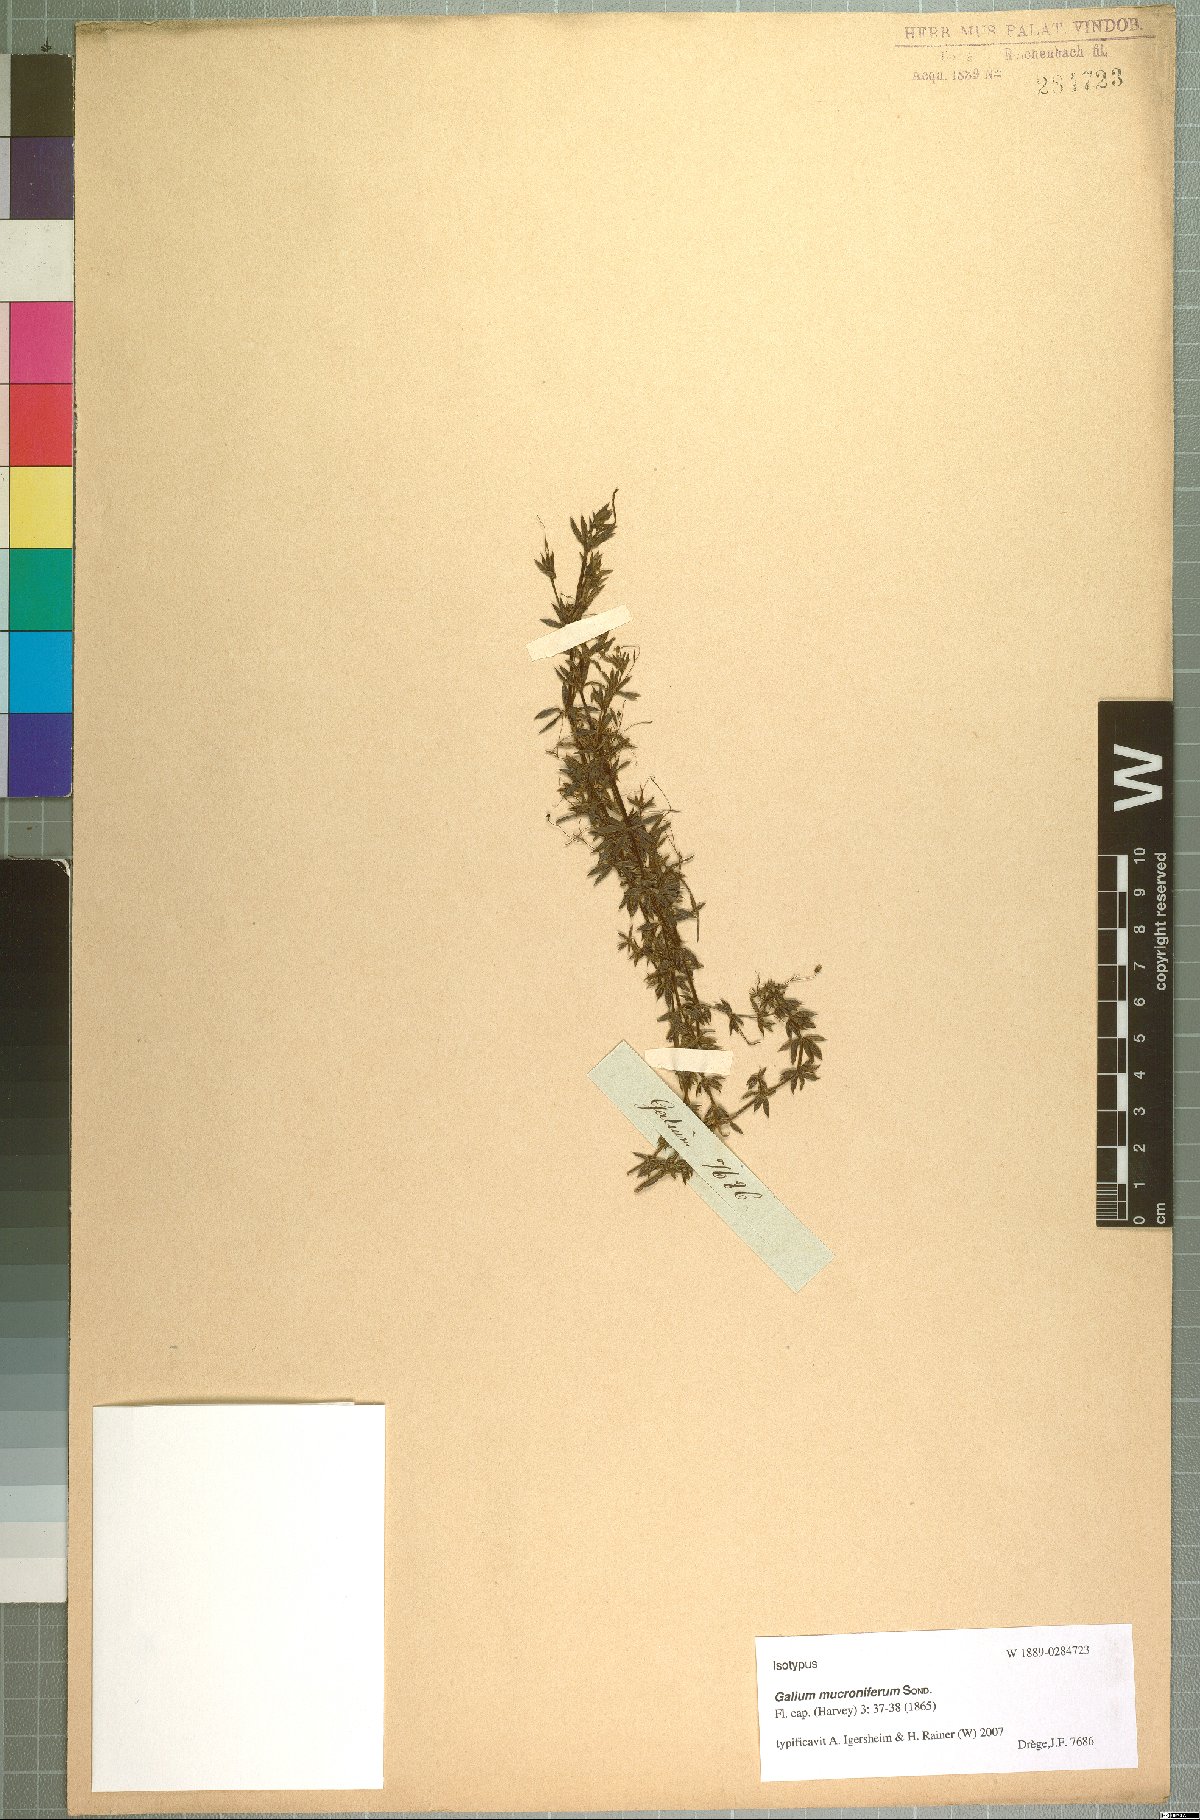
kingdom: Plantae
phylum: Tracheophyta
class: Magnoliopsida
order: Gentianales
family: Rubiaceae
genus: Galium
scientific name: Galium mucroniferum
